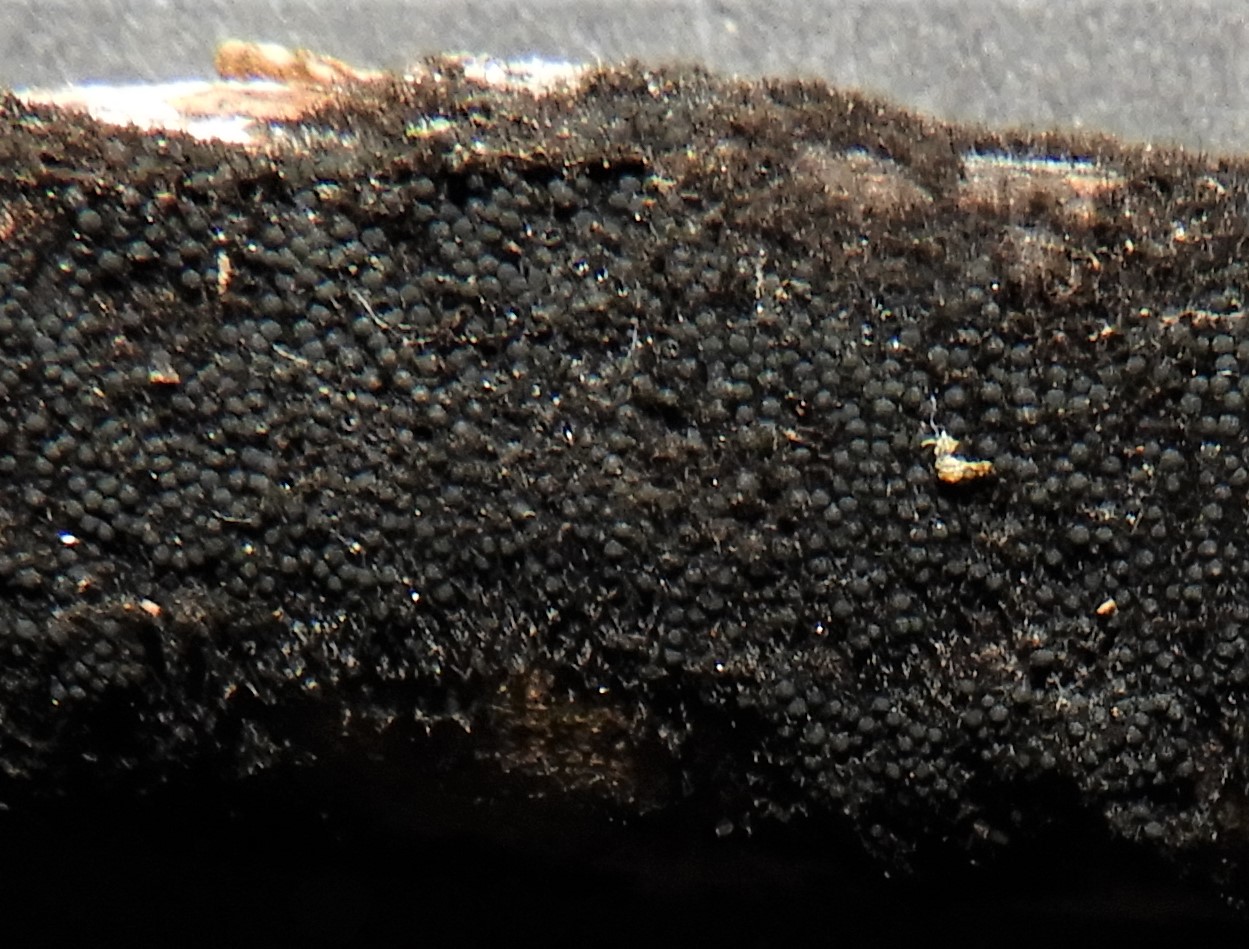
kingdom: Fungi
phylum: Ascomycota
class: Sordariomycetes
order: Coronophorales
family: Chaetosphaerellaceae
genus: Chaetosphaerella
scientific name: Chaetosphaerella phaeostroma
